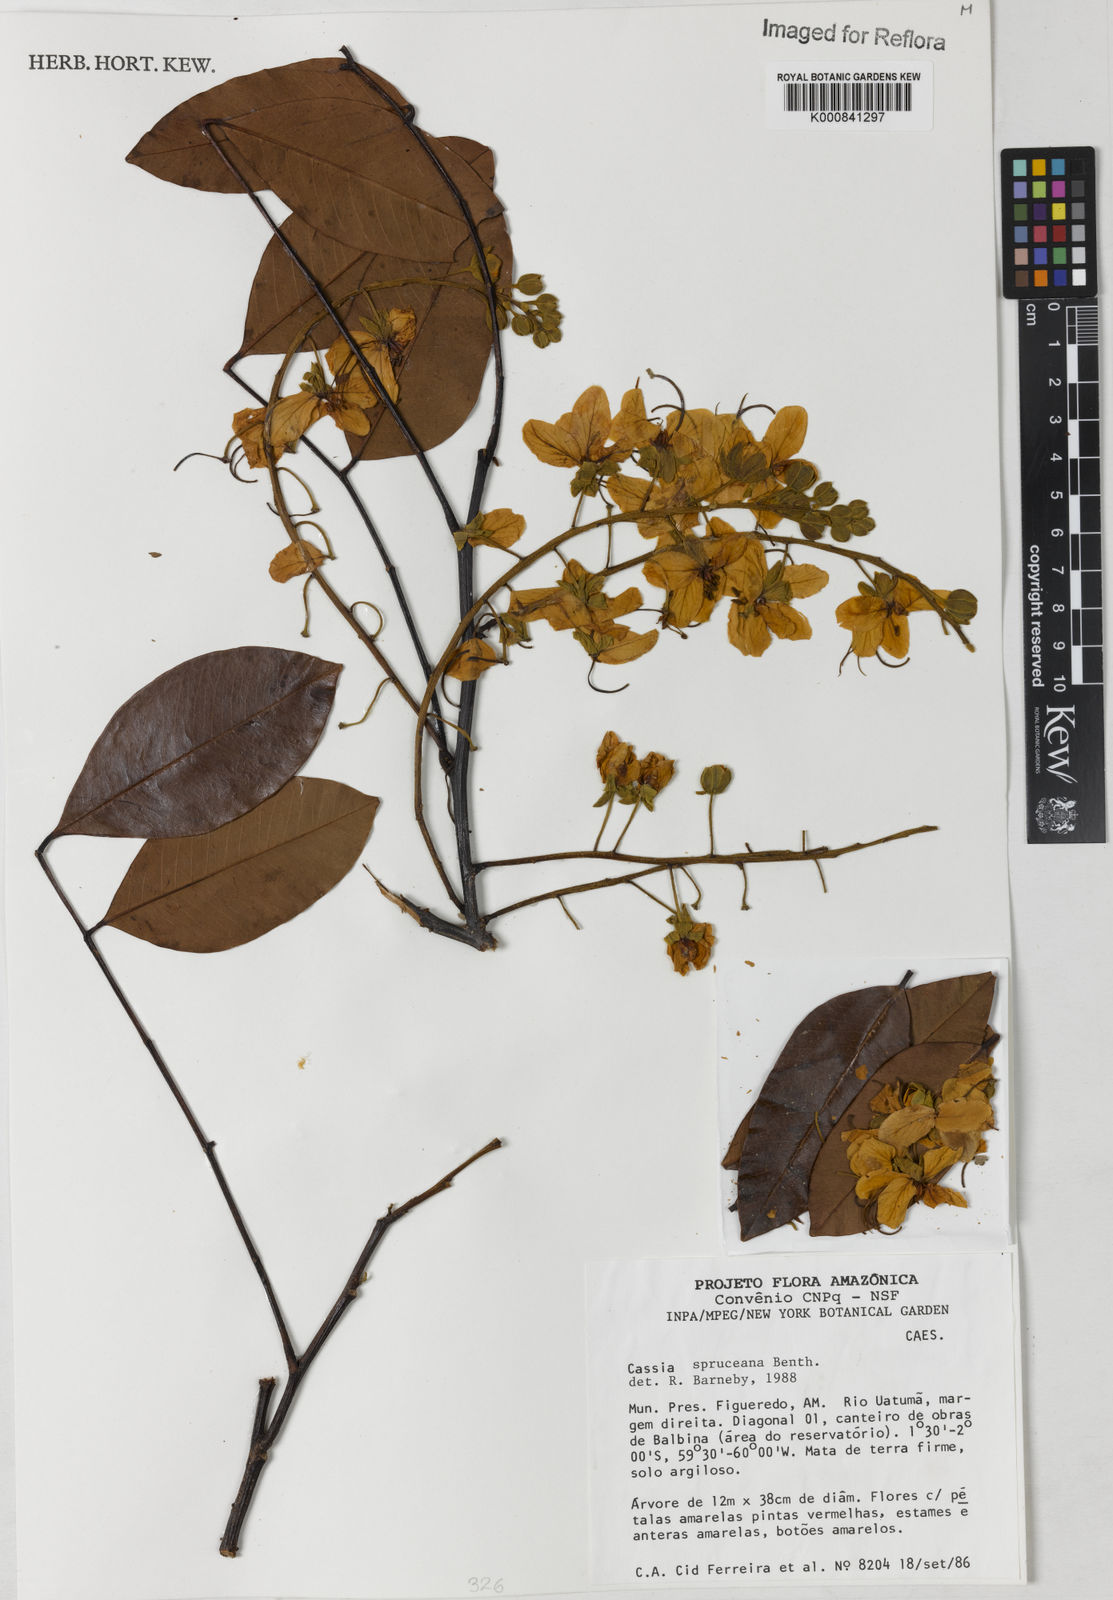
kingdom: Plantae
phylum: Tracheophyta
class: Magnoliopsida
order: Fabales
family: Fabaceae
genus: Cassia
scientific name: Cassia spruceana
